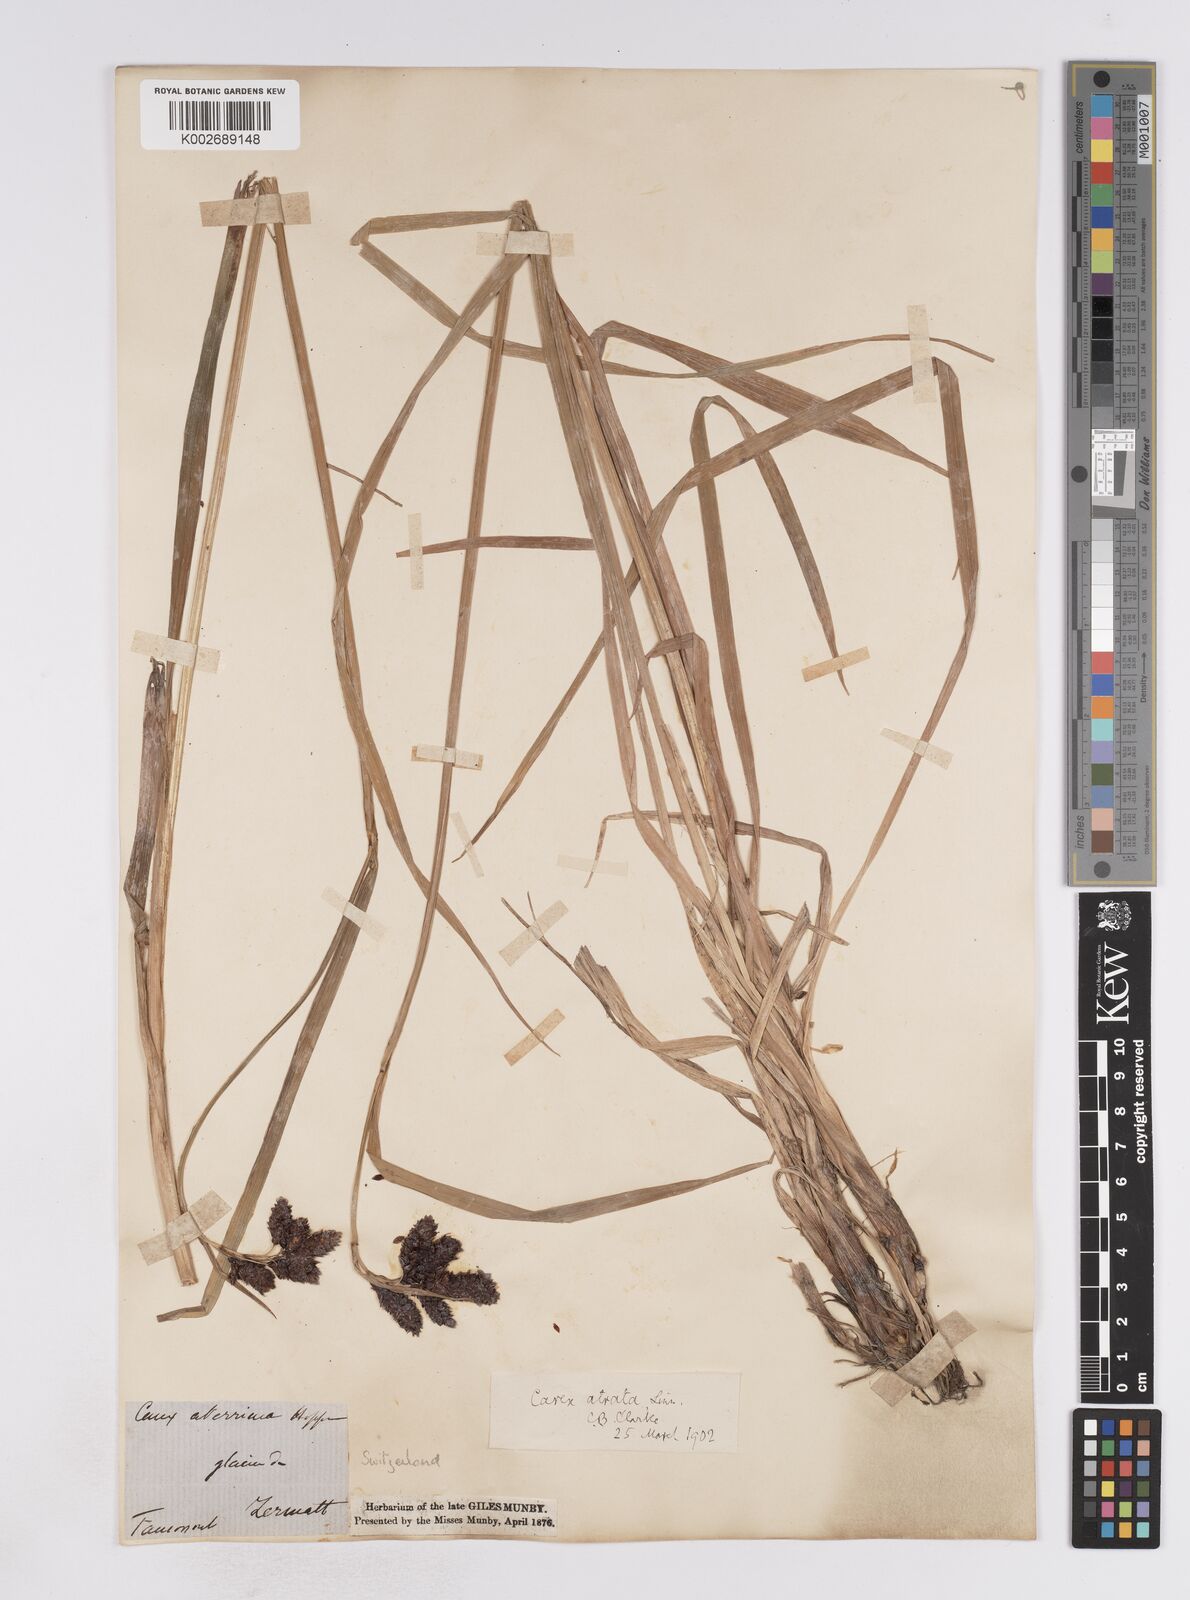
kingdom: Plantae
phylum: Tracheophyta
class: Liliopsida
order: Poales
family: Cyperaceae
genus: Carex
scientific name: Carex aterrima
